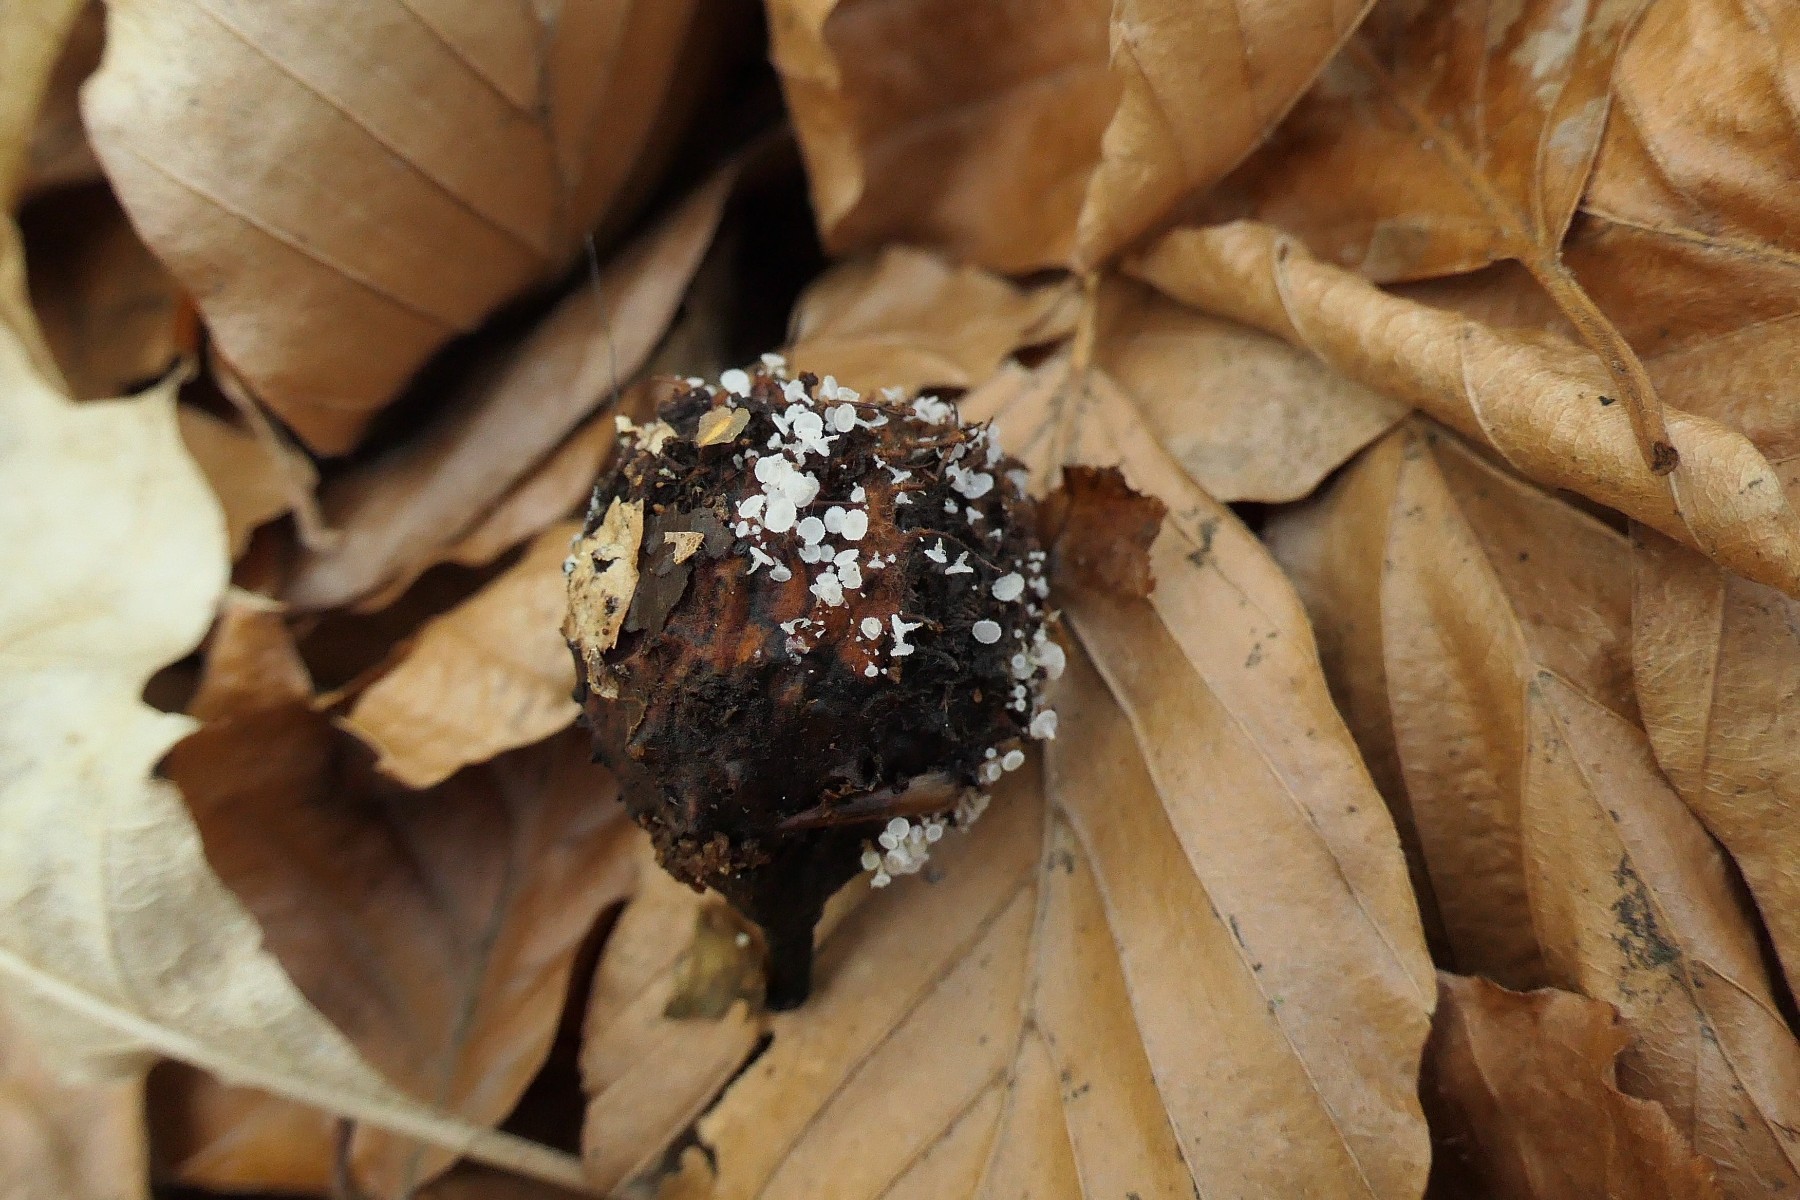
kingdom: Fungi
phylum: Ascomycota
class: Leotiomycetes
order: Helotiales
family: Lachnaceae
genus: Lachnum
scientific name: Lachnum virgineum
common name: jomfru-frynseskive
